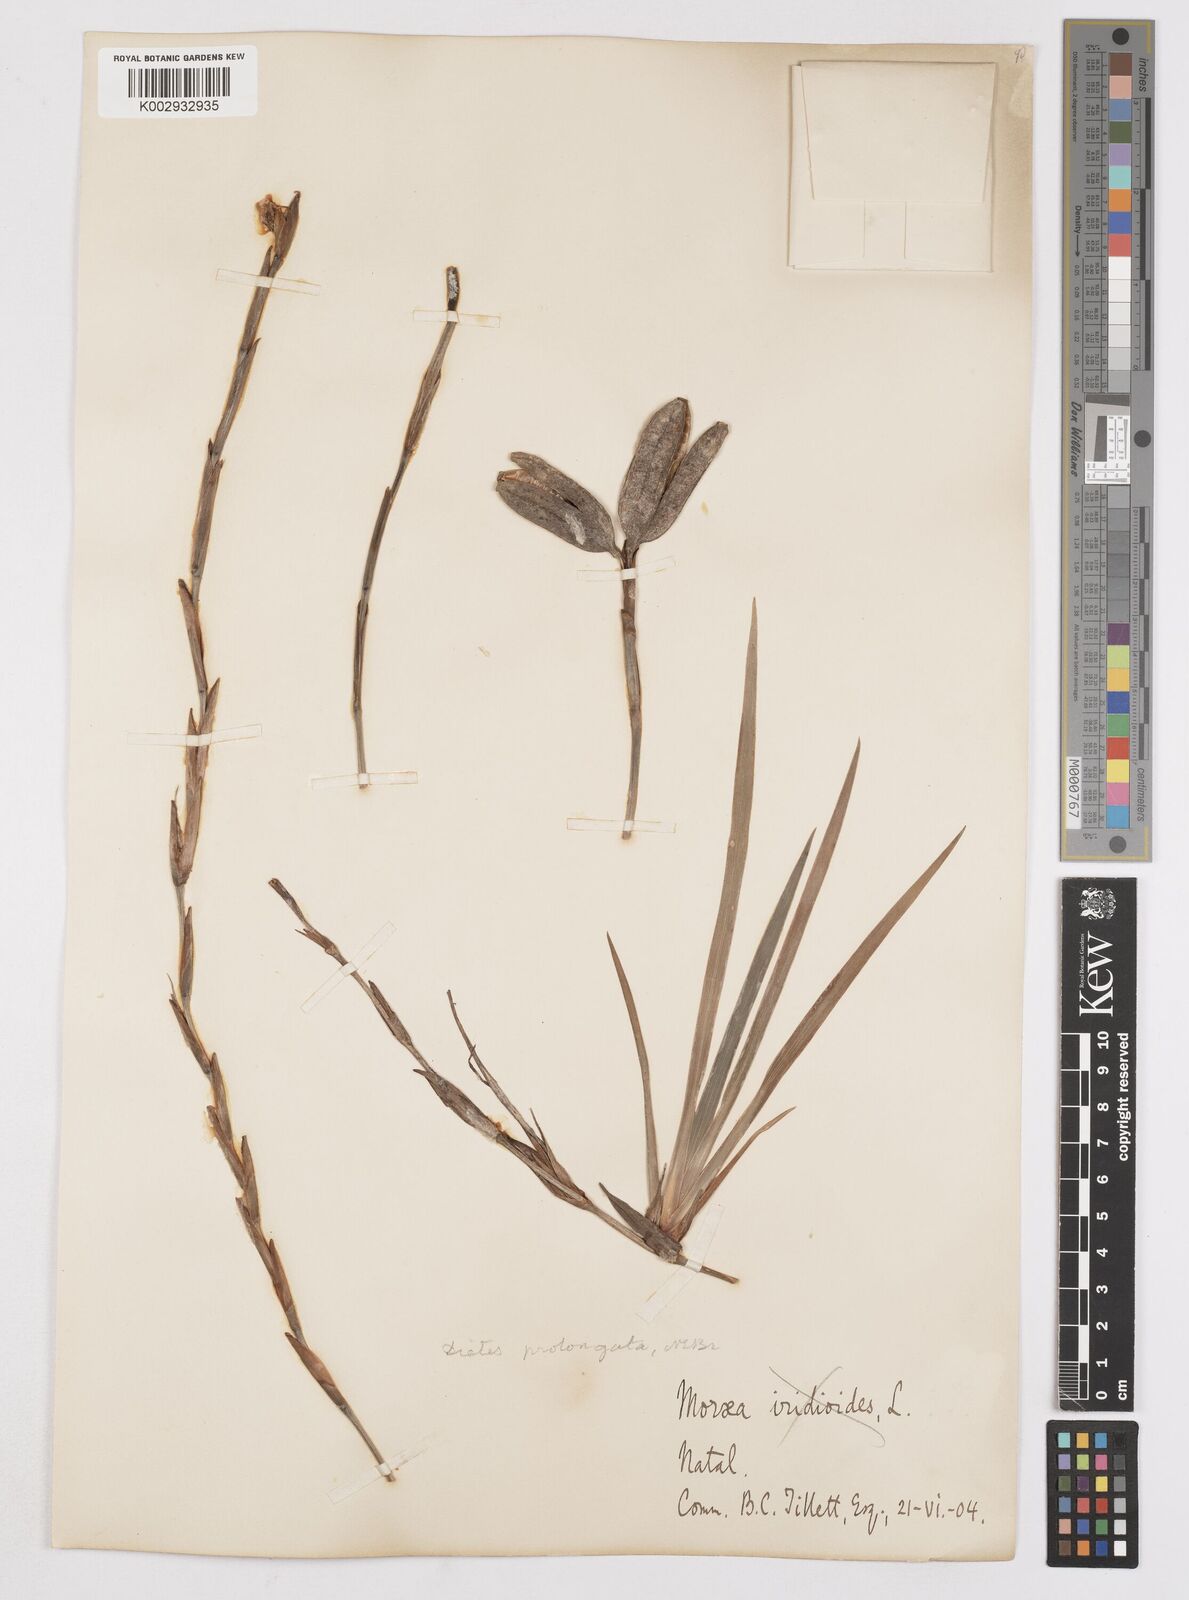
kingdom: Plantae
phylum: Tracheophyta
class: Liliopsida
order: Asparagales
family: Iridaceae
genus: Dietes
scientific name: Dietes iridioides
